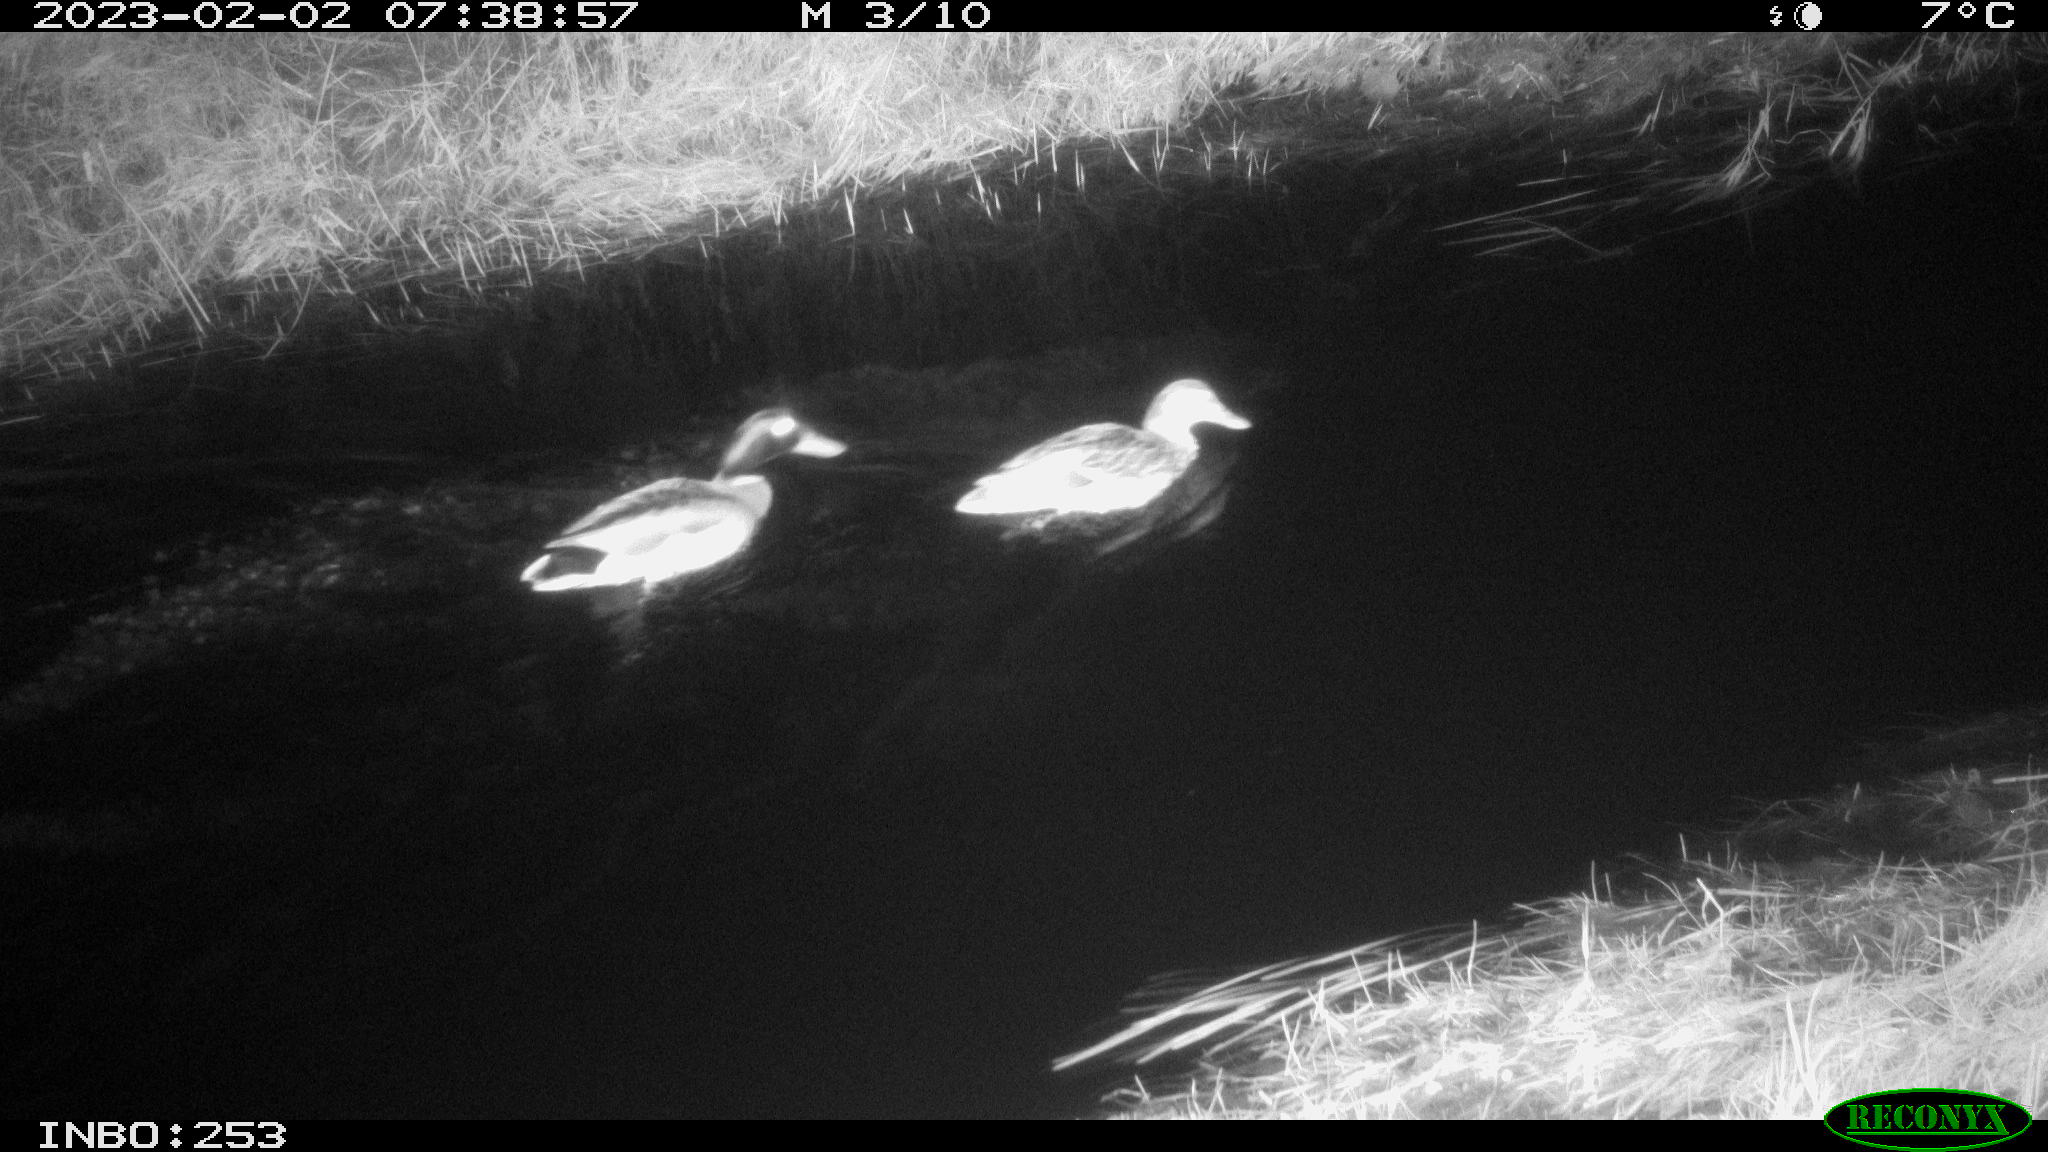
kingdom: Animalia
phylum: Chordata
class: Aves
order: Anseriformes
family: Anatidae
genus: Anas
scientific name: Anas
